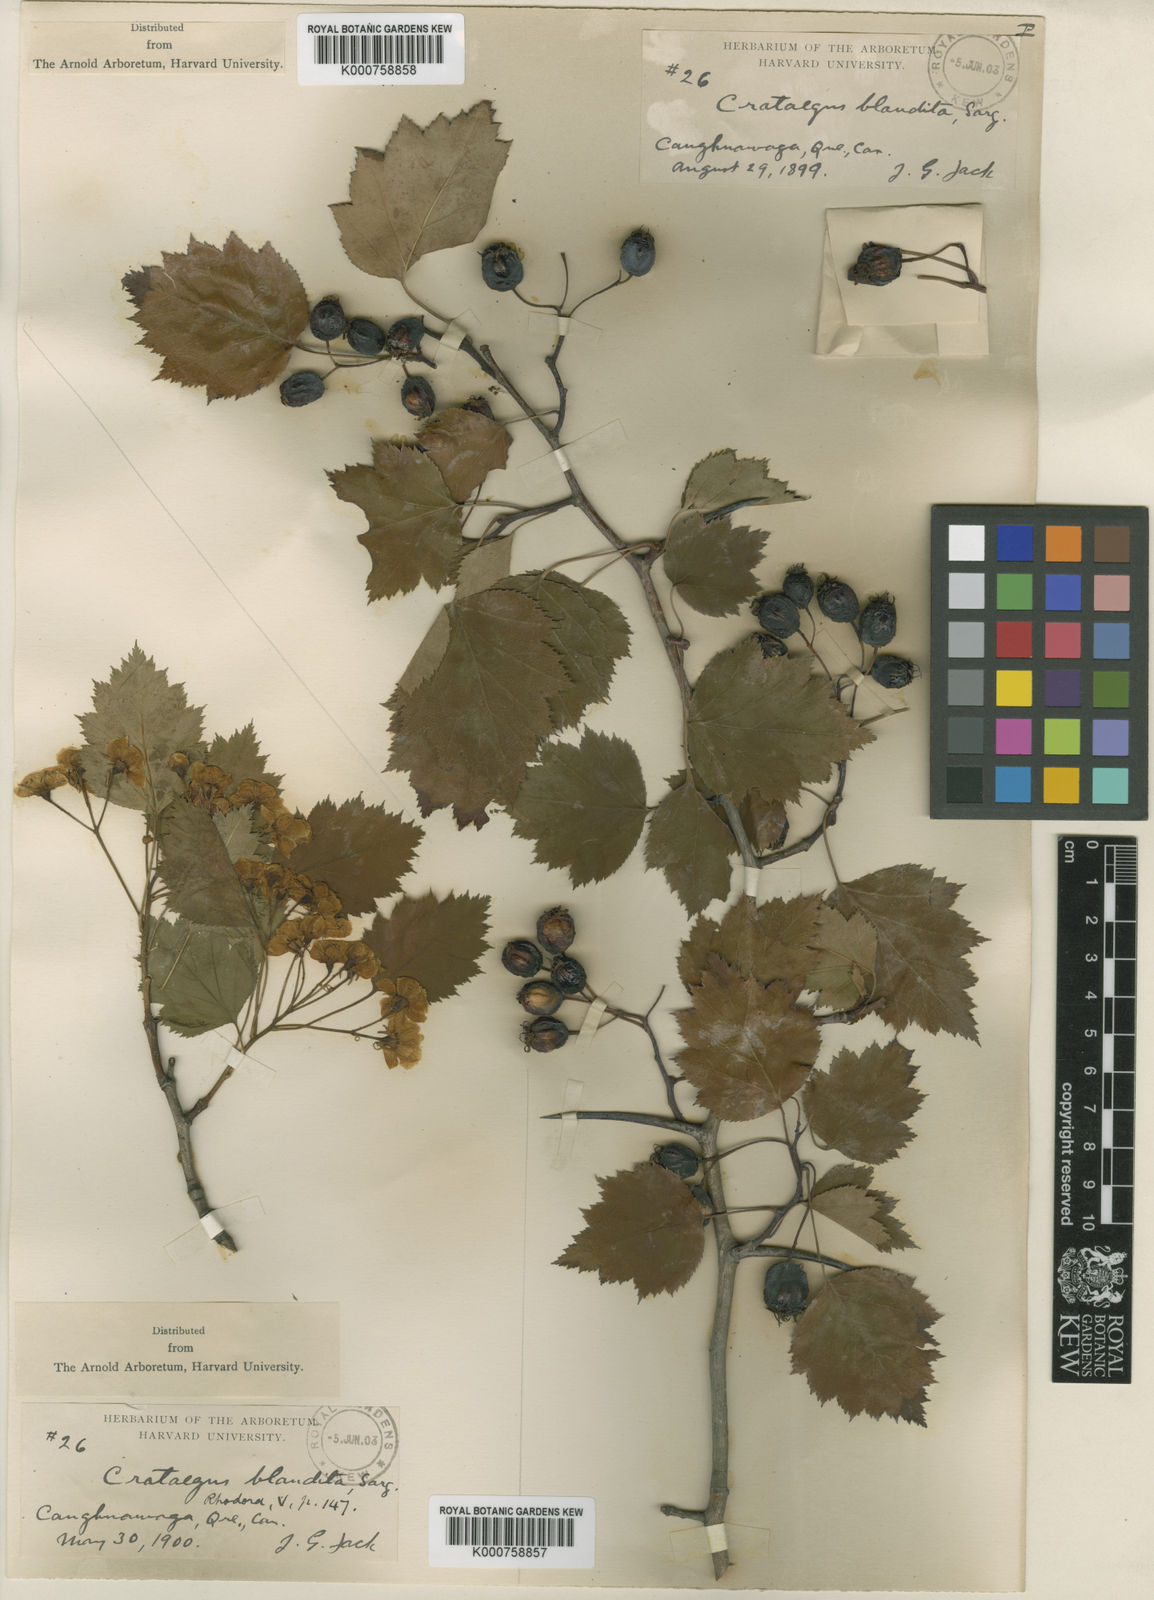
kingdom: Plantae
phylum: Tracheophyta
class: Magnoliopsida
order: Rosales
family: Rosaceae
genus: Crataegus
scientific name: Crataegus flabellata
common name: Bosc's hawthorn
